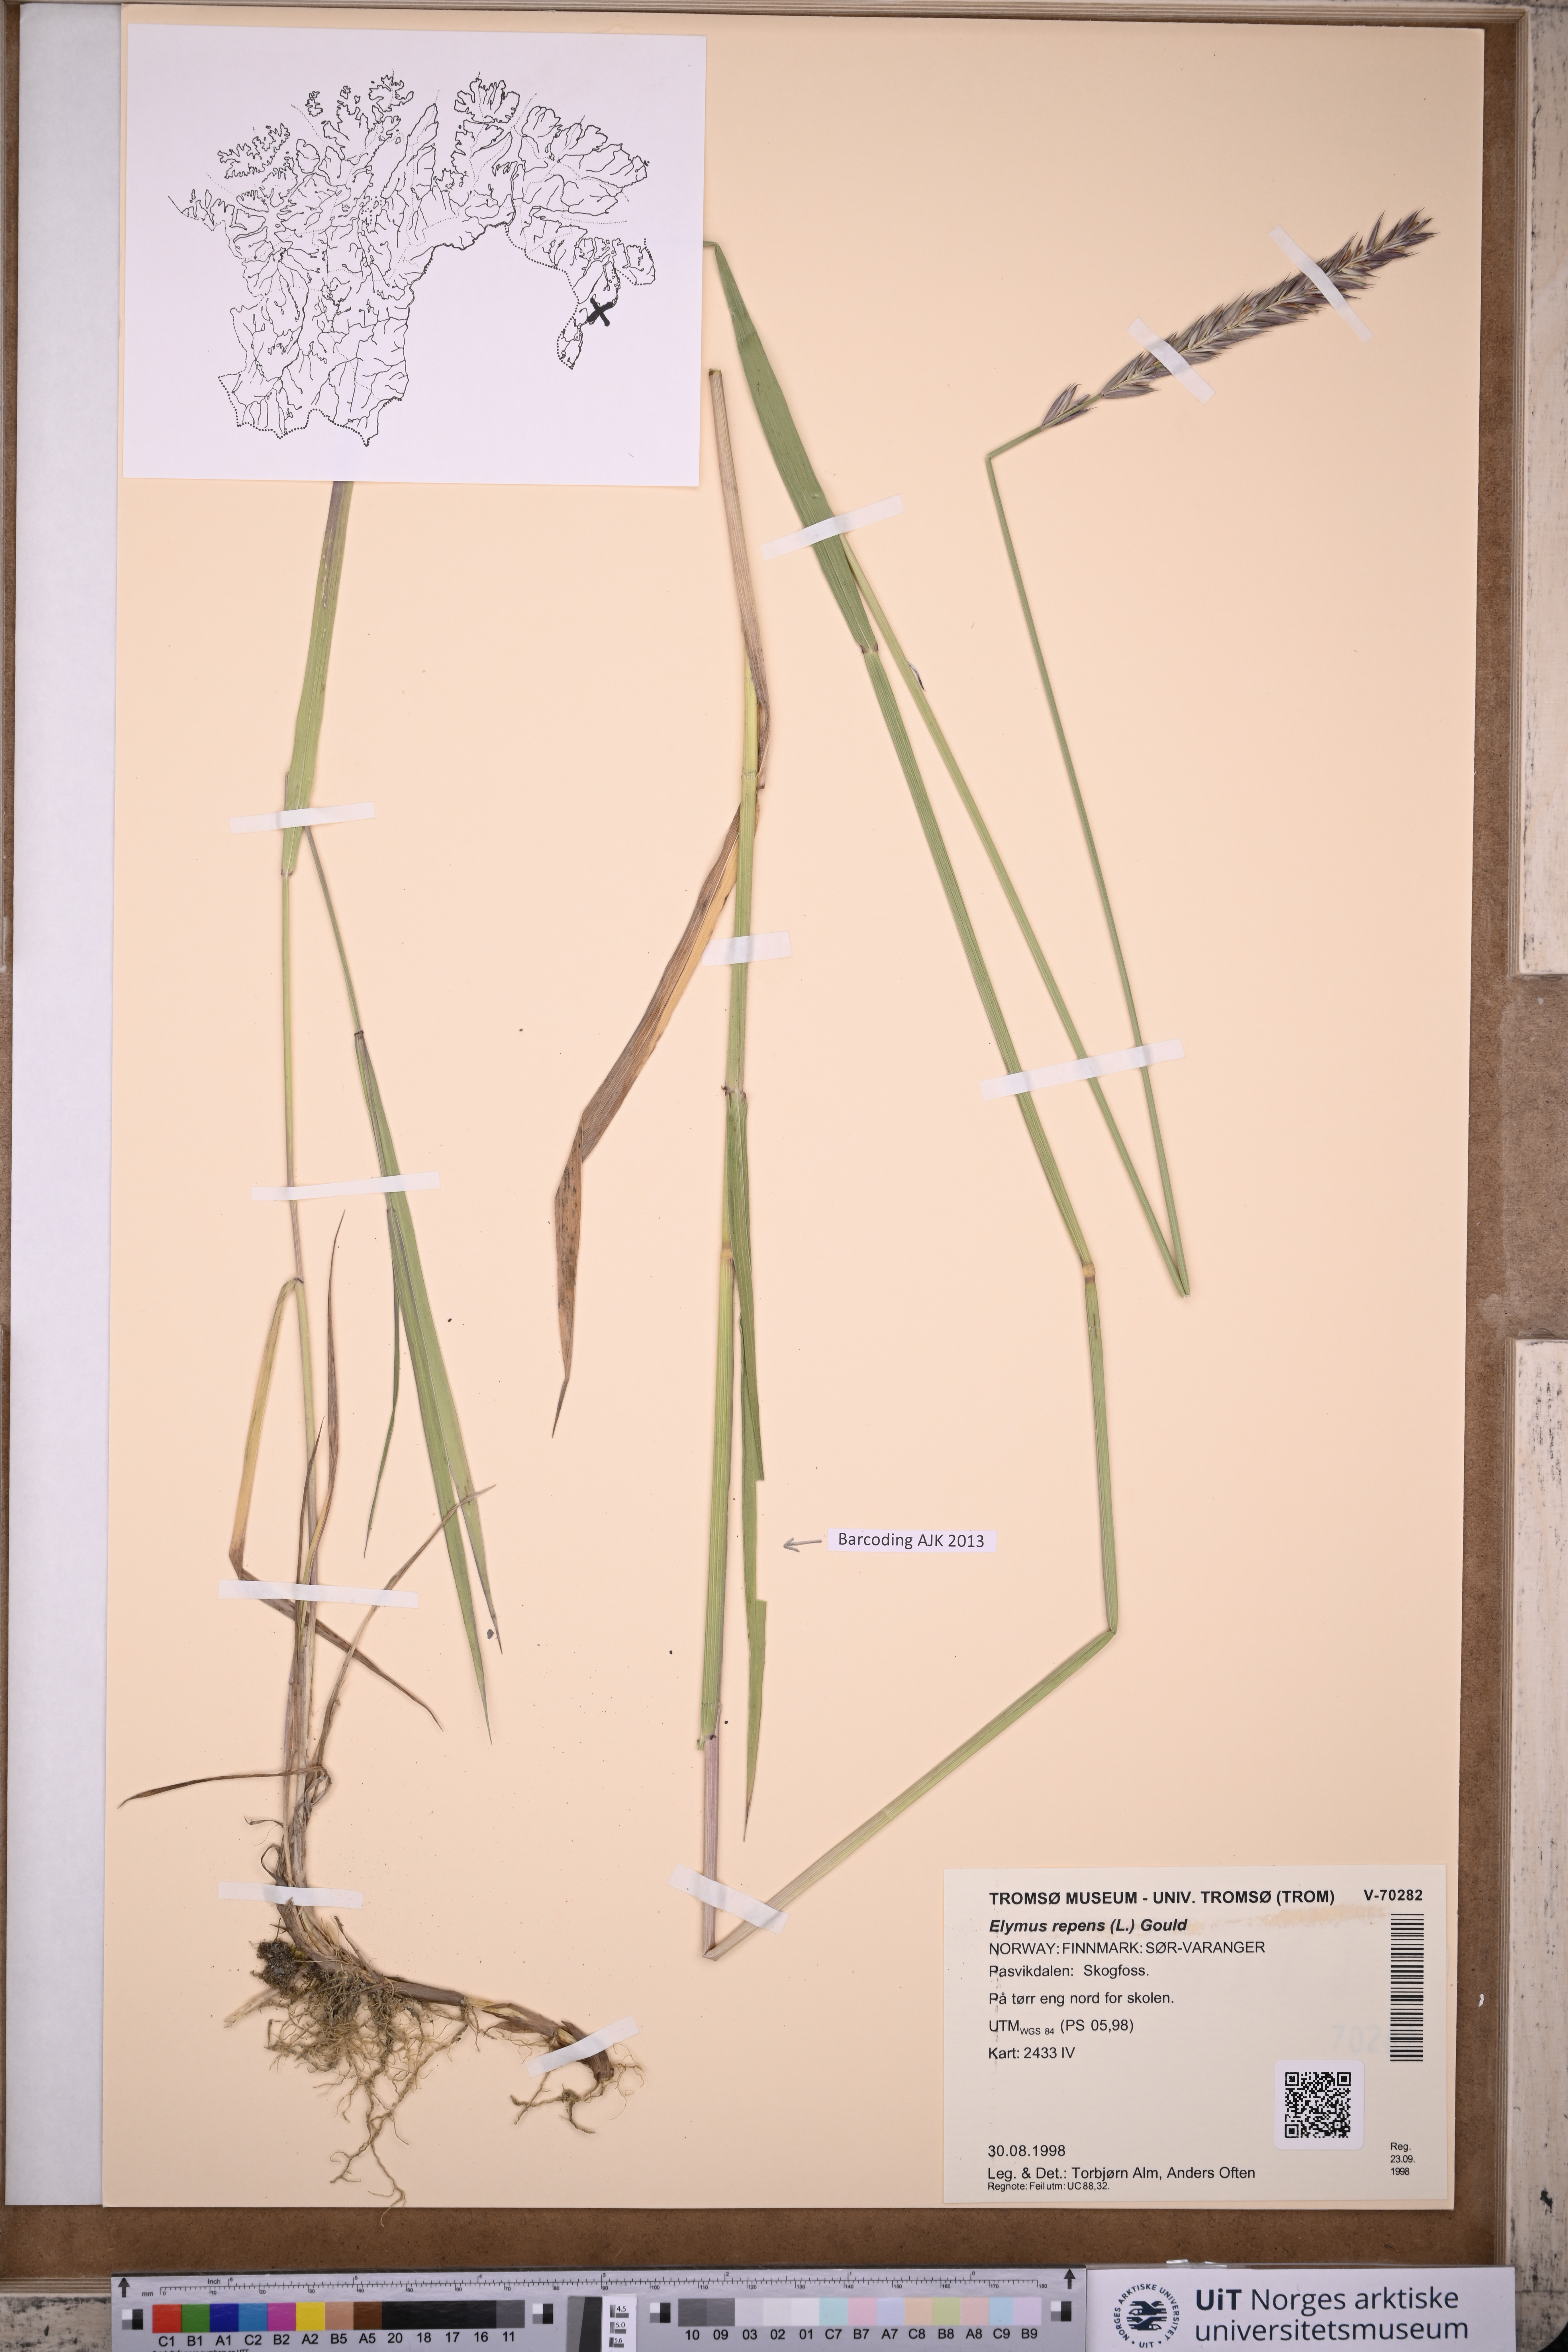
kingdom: Plantae
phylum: Tracheophyta
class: Liliopsida
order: Poales
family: Poaceae
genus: Elymus
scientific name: Elymus repens
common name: Quackgrass
